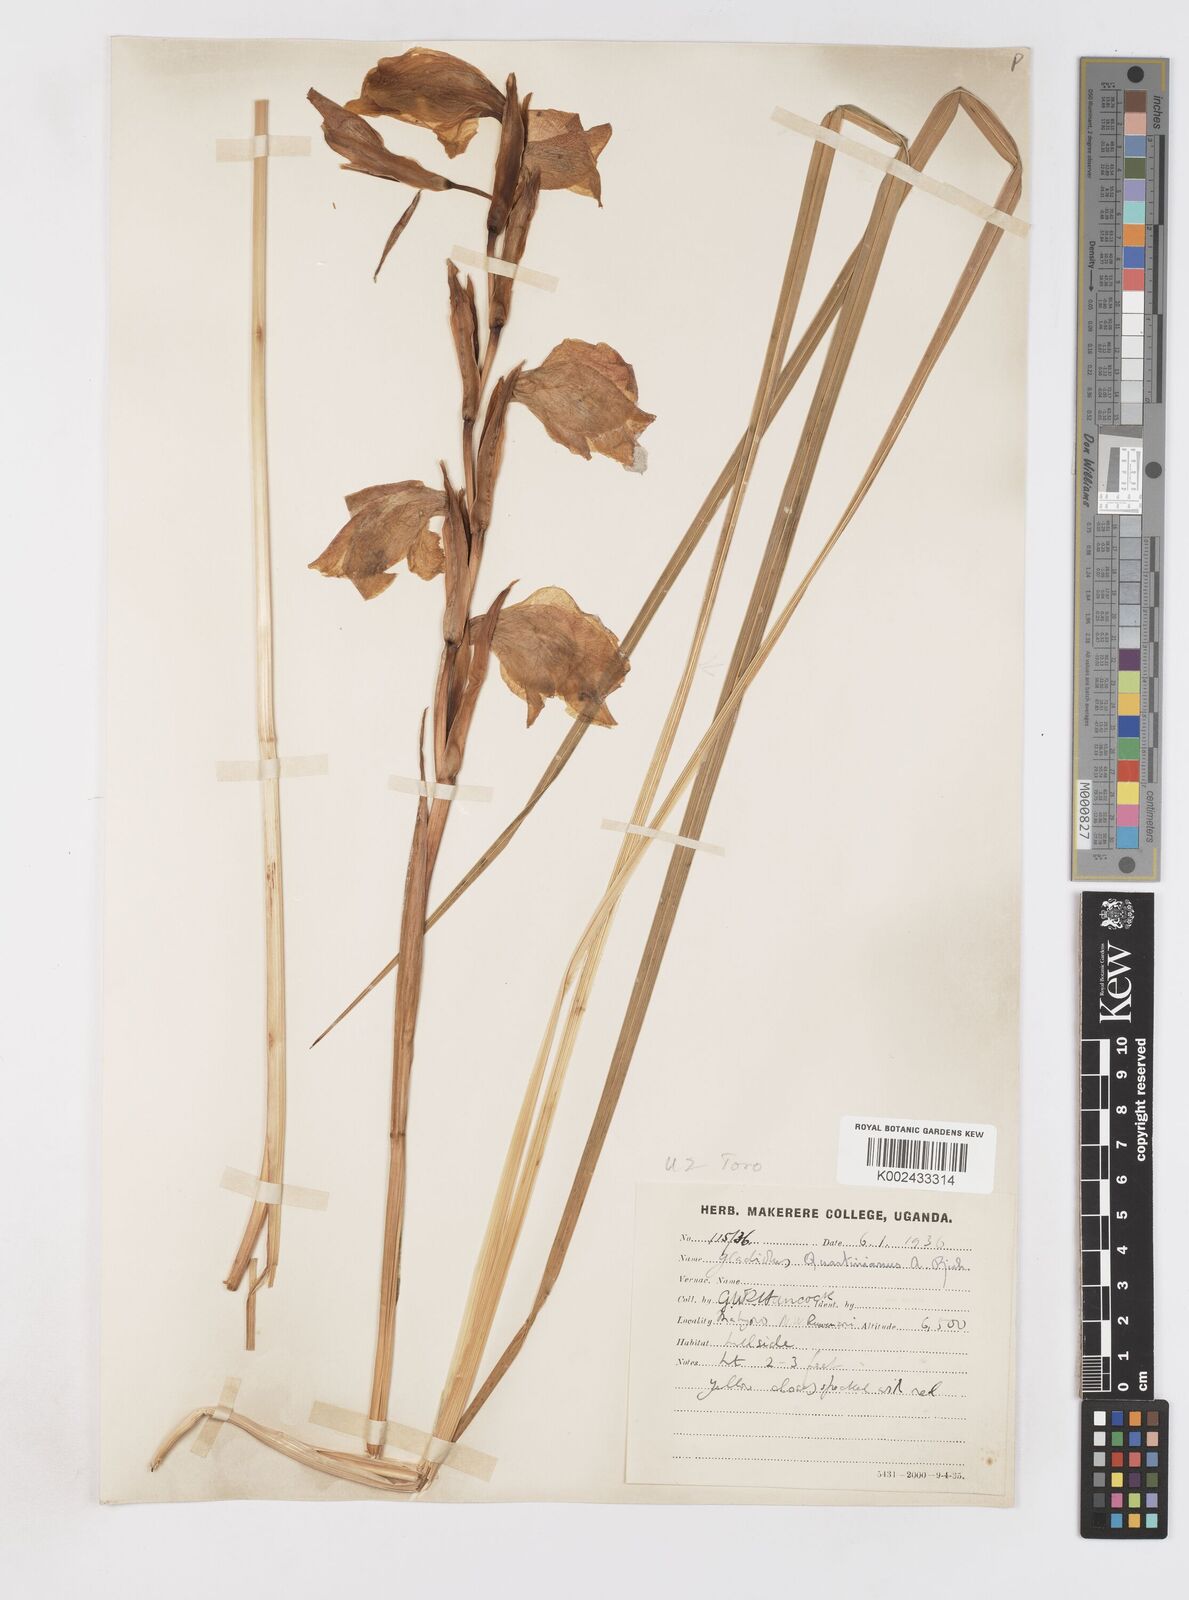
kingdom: Plantae
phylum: Tracheophyta
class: Liliopsida
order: Asparagales
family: Iridaceae
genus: Gladiolus
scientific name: Gladiolus dalenii
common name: Cornflag
